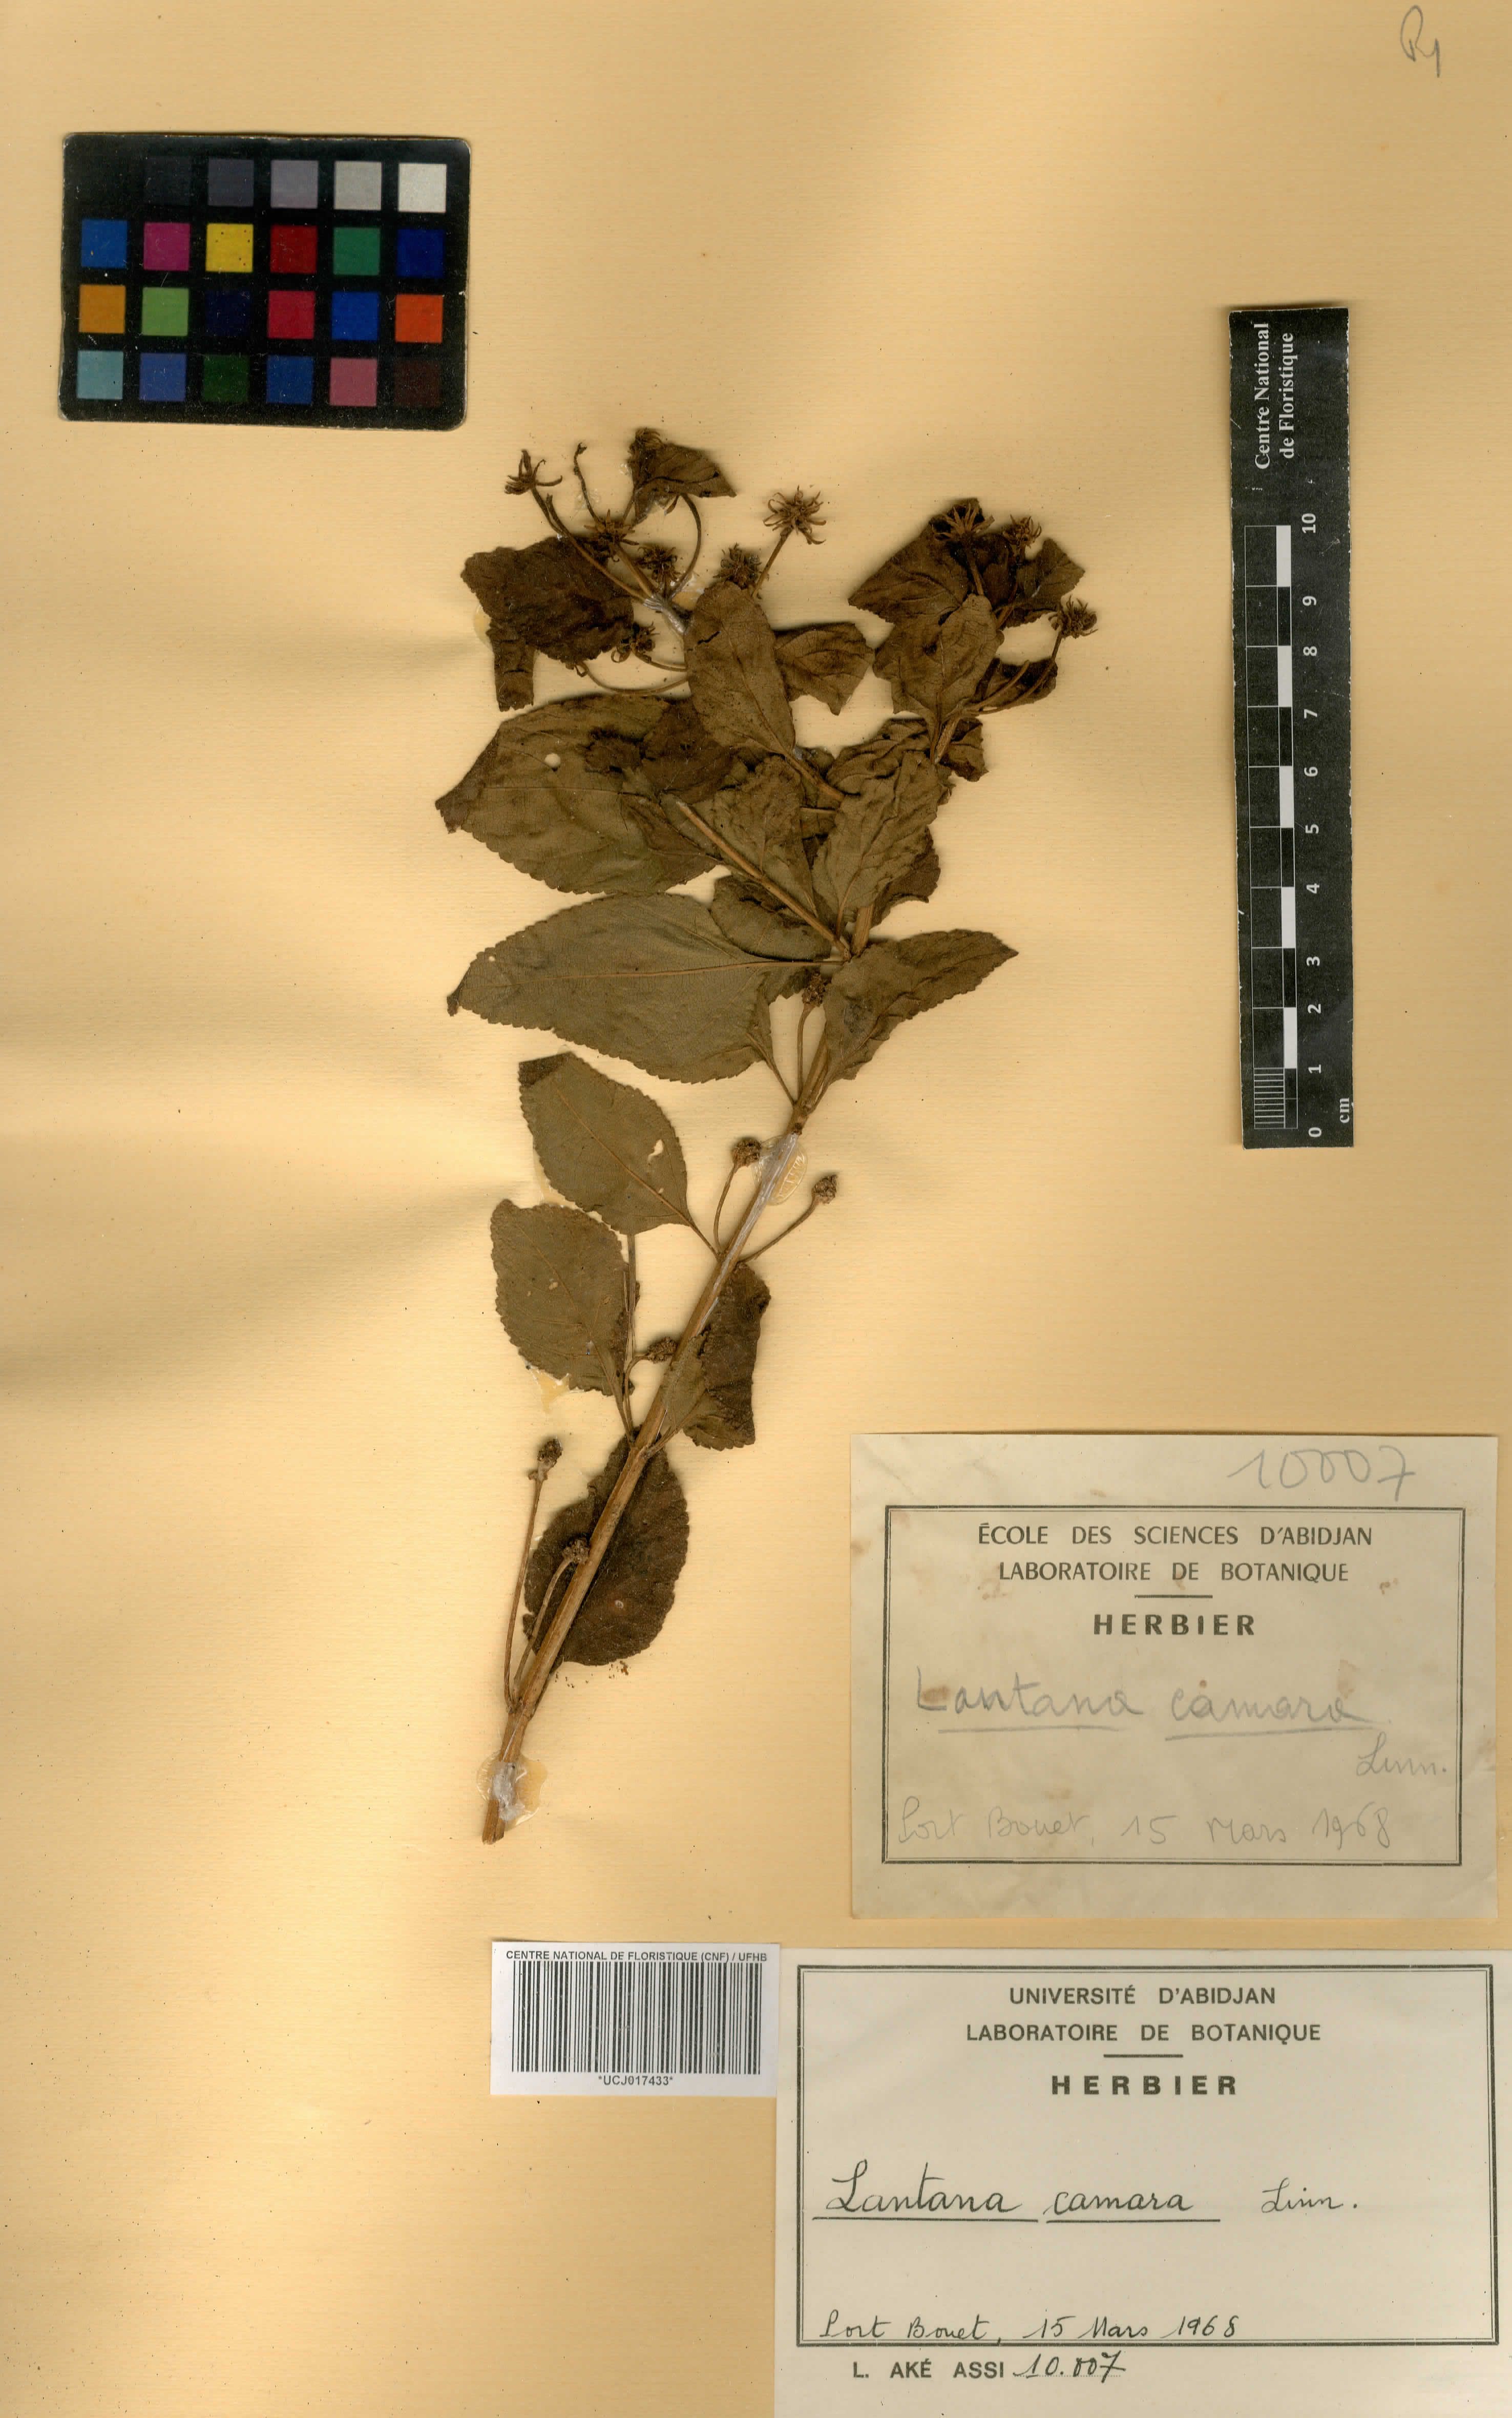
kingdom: Plantae
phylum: Tracheophyta
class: Magnoliopsida
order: Lamiales
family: Verbenaceae
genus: Lantana
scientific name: Lantana camara
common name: Lantana
